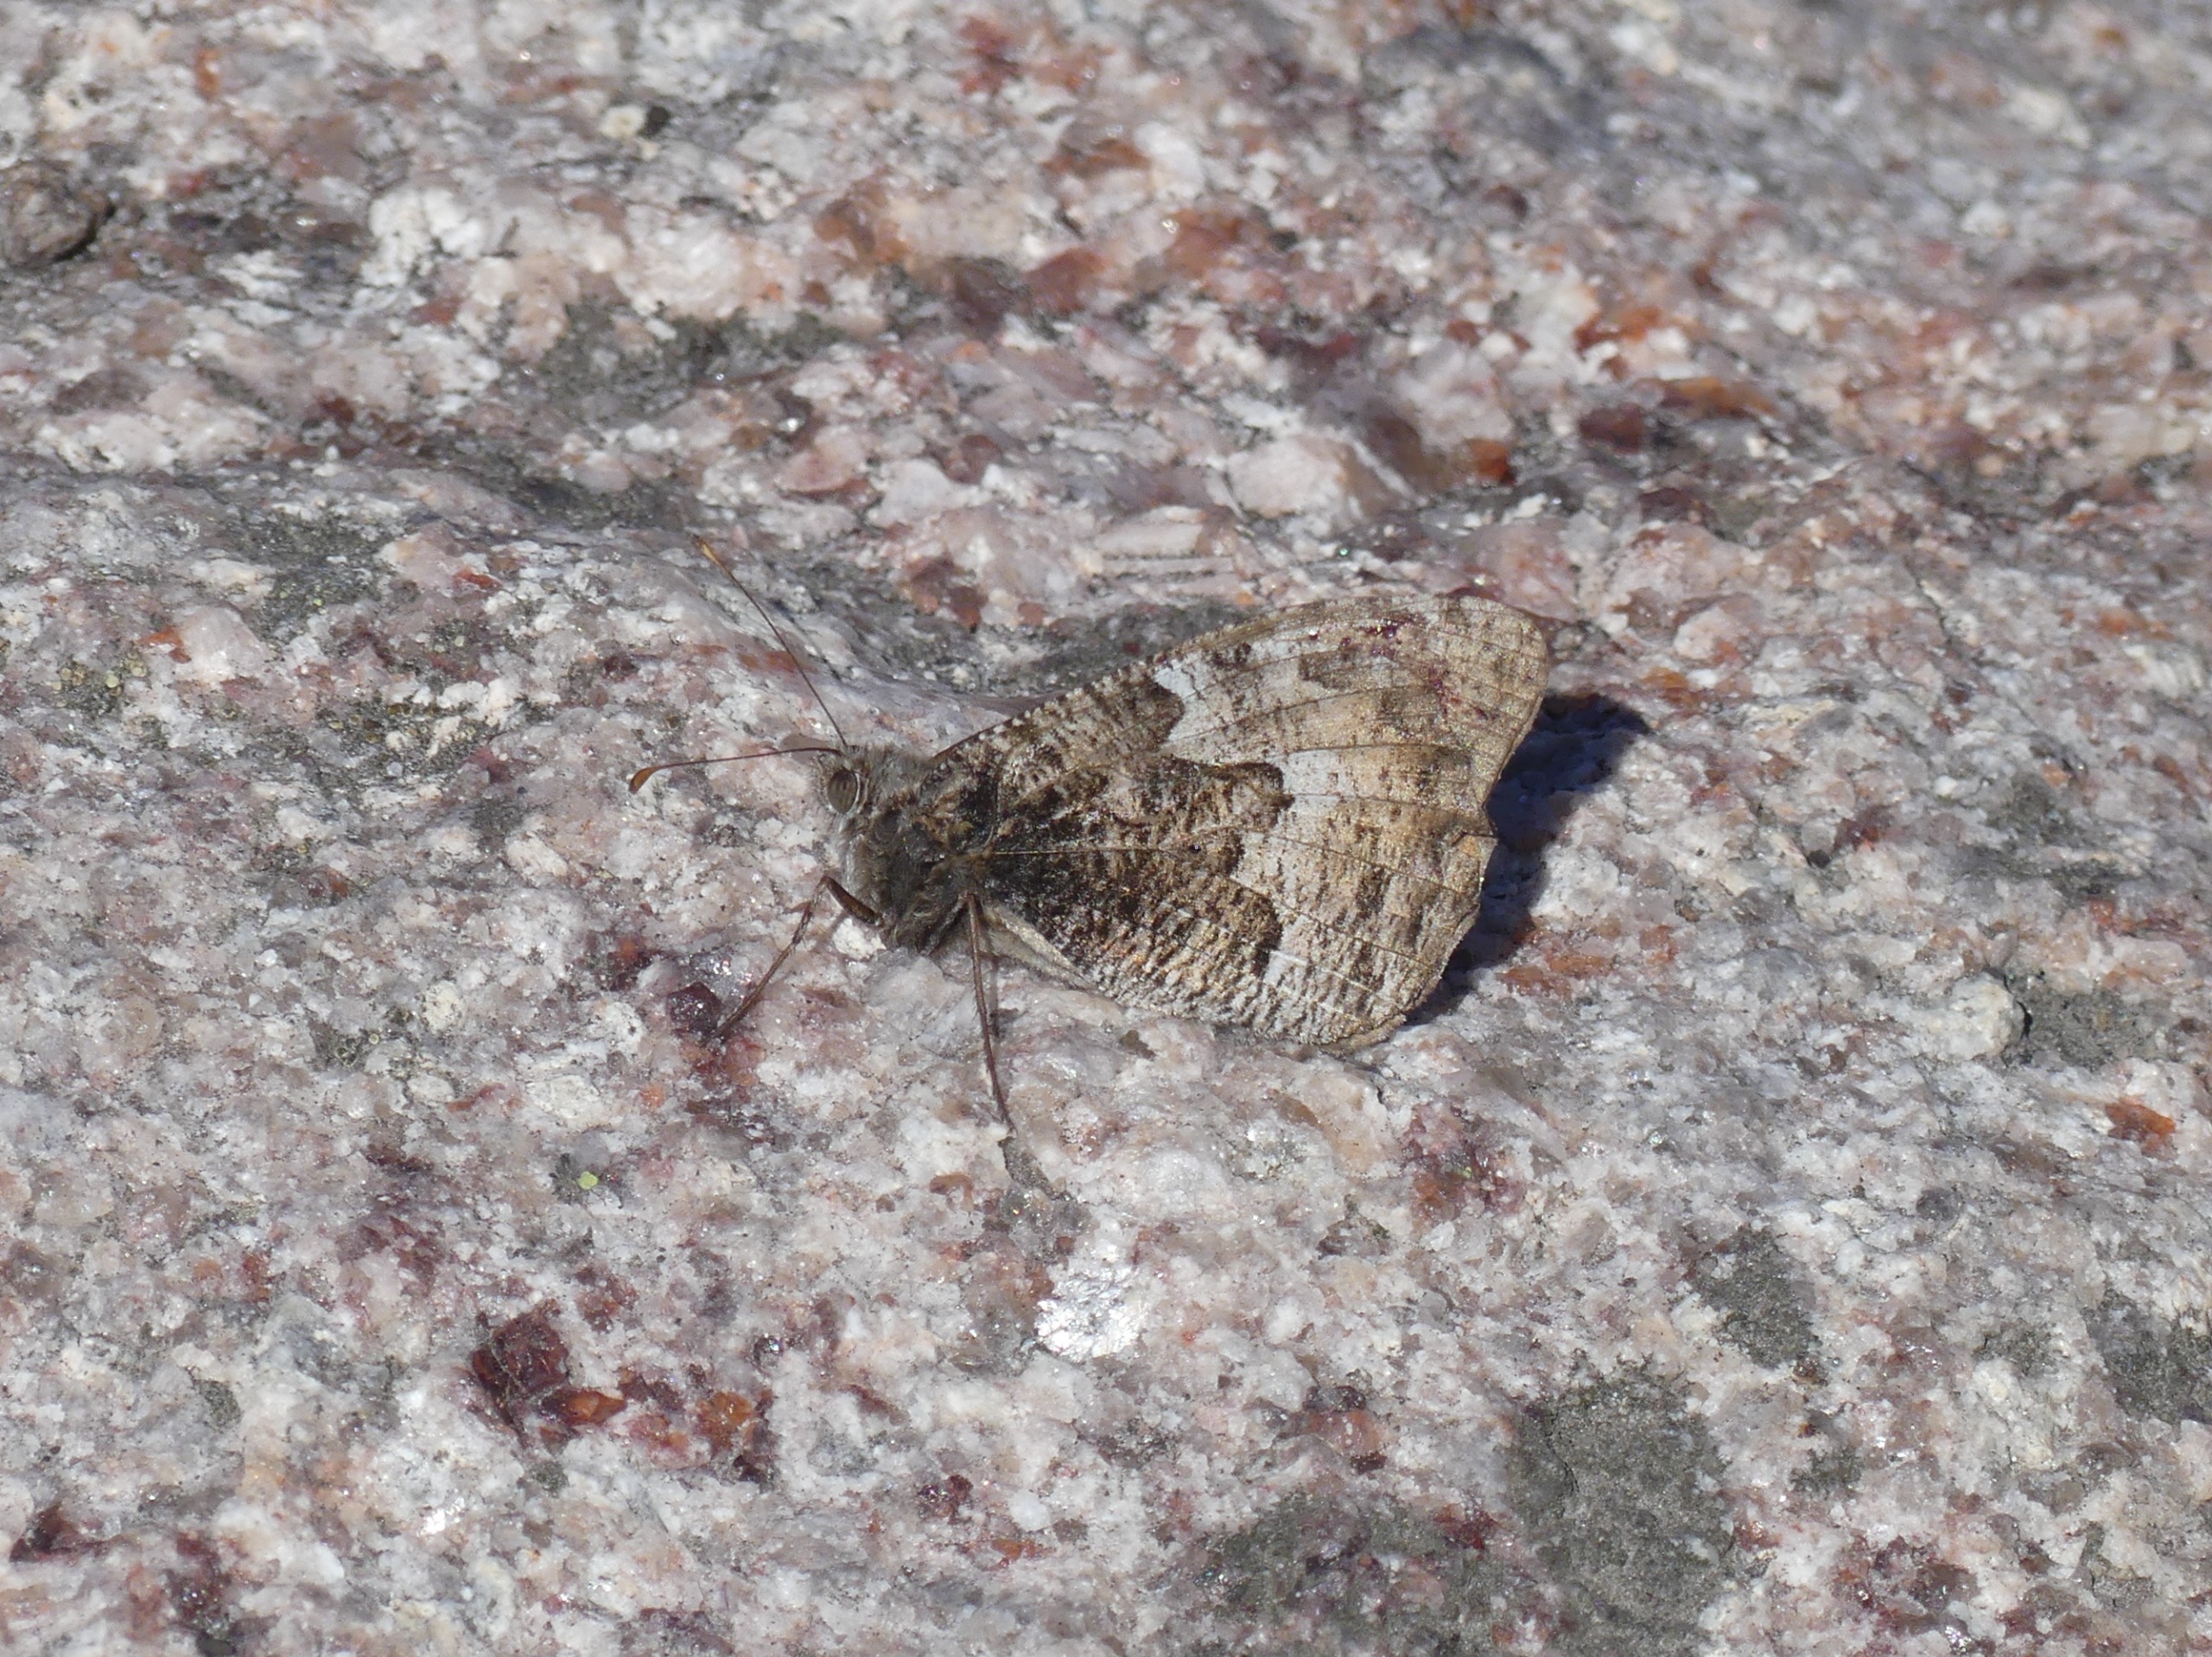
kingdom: Animalia
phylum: Arthropoda
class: Insecta
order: Lepidoptera
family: Nymphalidae
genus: Hipparchia
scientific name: Hipparchia semele
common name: Sandrandøje
